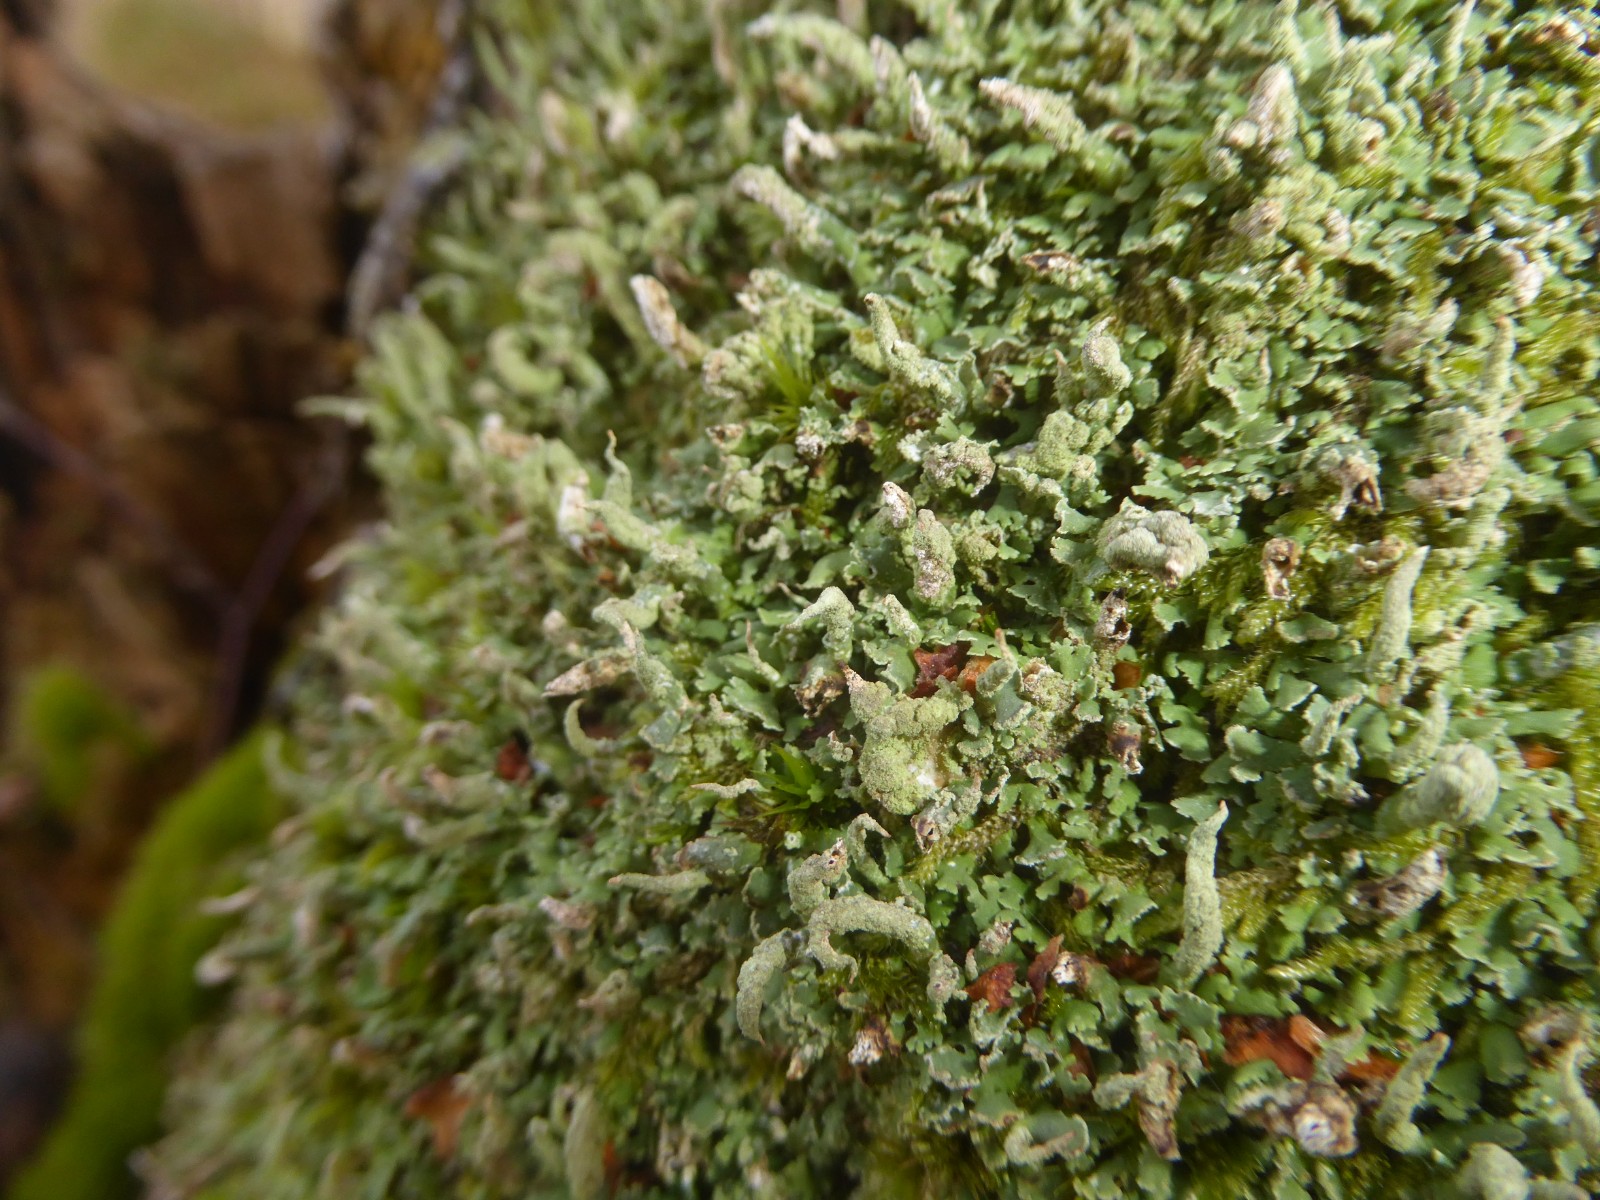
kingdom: Fungi
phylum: Ascomycota
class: Lecanoromycetes
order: Lecanorales
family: Cladoniaceae
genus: Cladonia
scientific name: Cladonia coniocraea
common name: træfods-bægerlav
